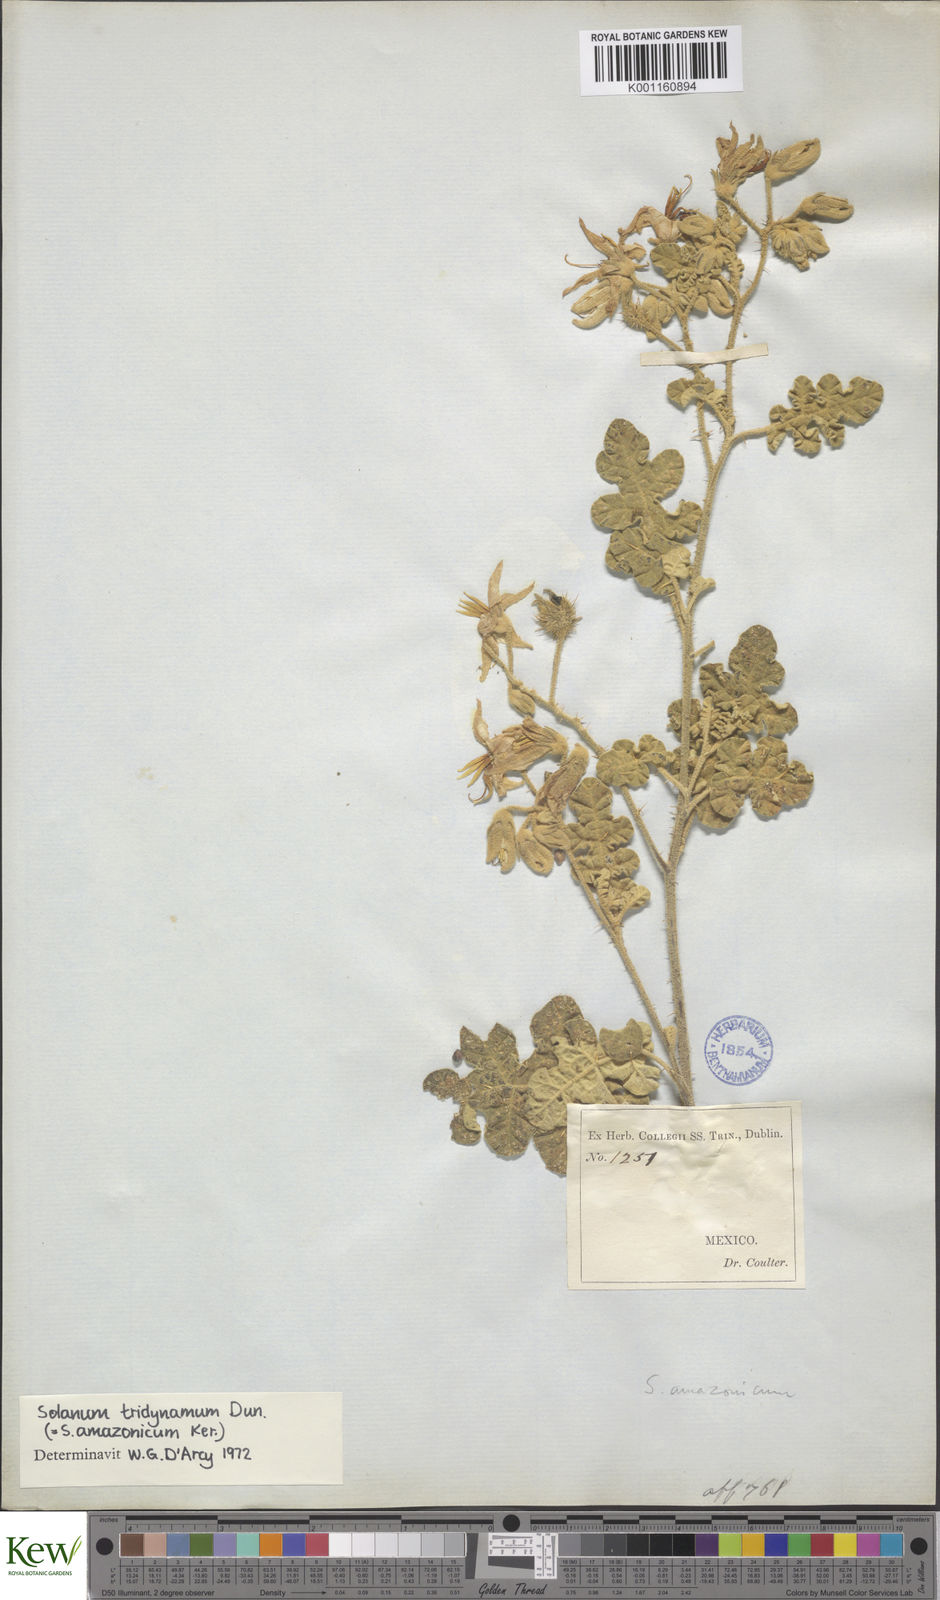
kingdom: Plantae
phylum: Tracheophyta
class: Magnoliopsida
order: Solanales
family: Solanaceae
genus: Solanum
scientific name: Solanum houstonii
